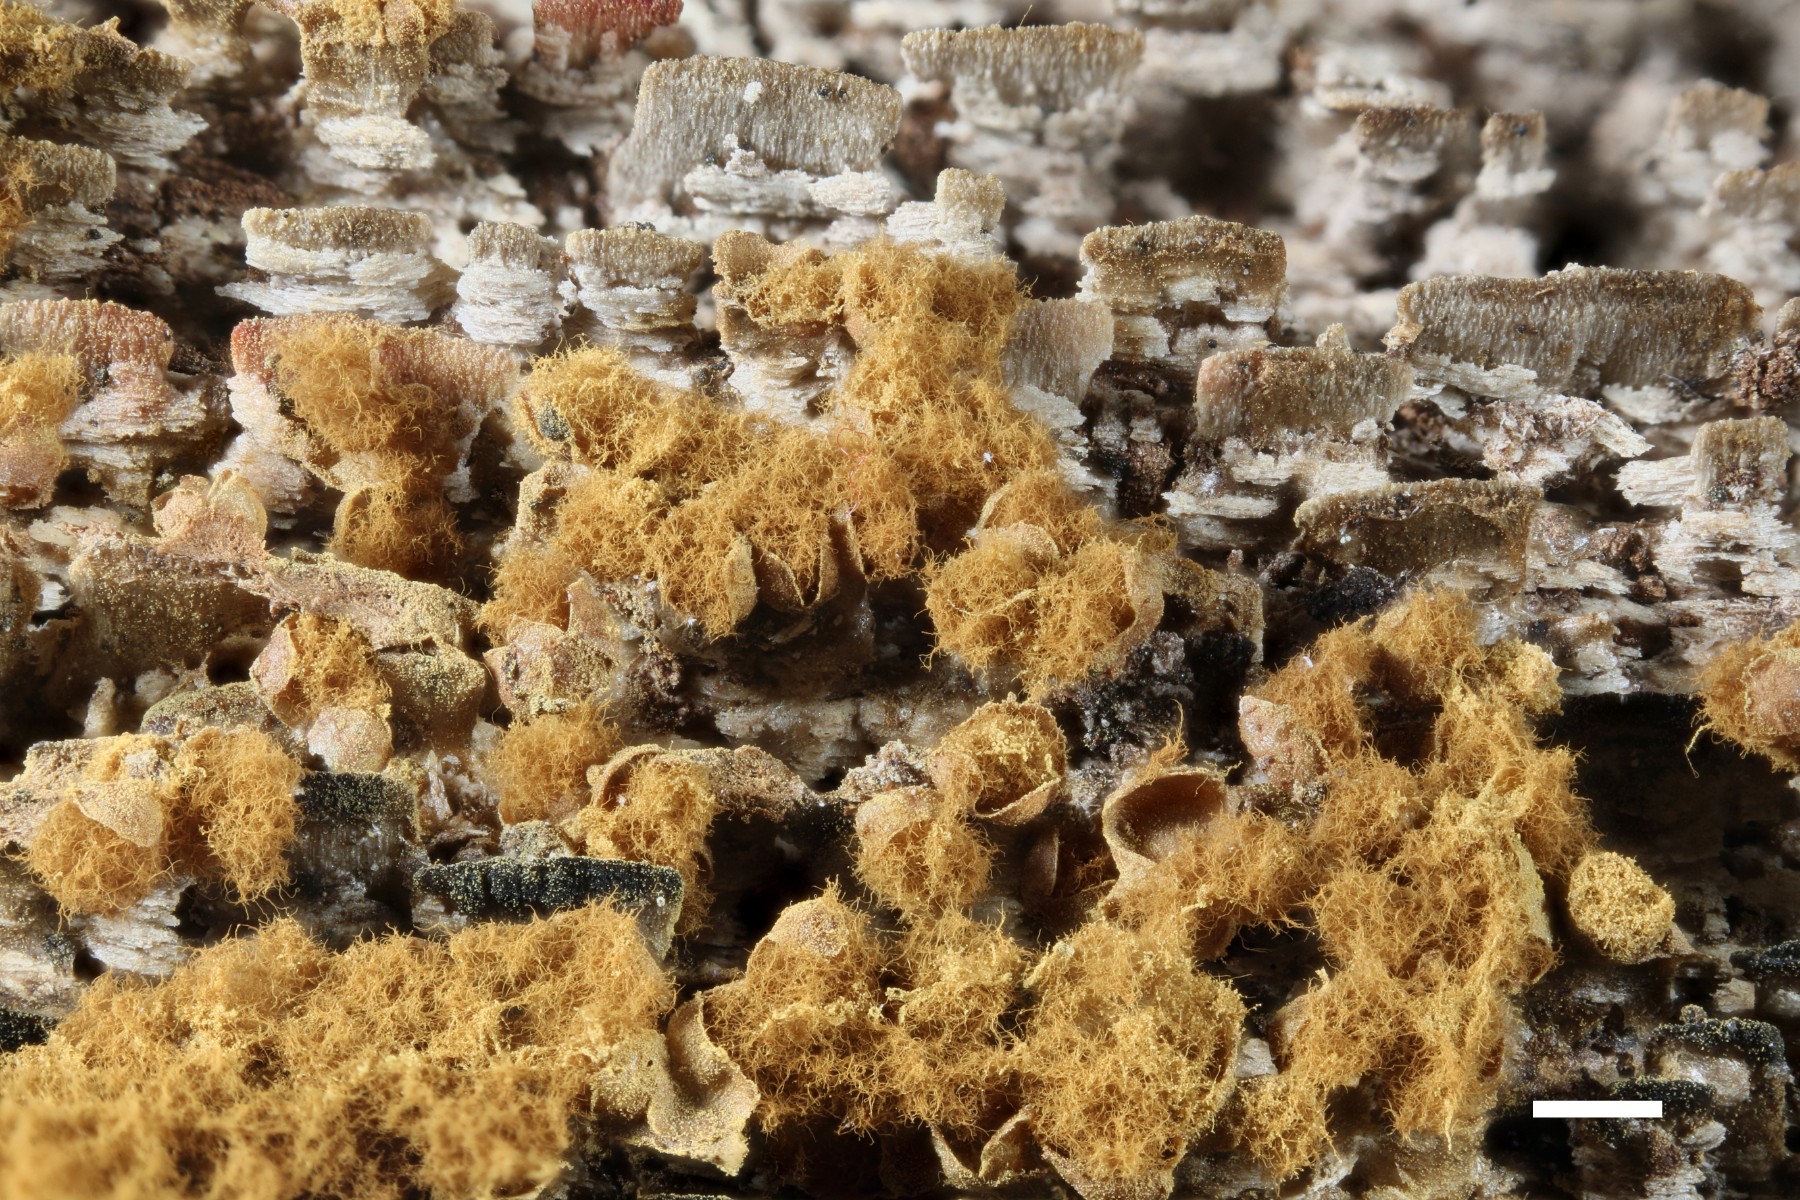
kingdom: Protozoa
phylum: Mycetozoa
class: Myxomycetes
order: Trichiales
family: Trichiaceae
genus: Trichia
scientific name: Trichia contorta
